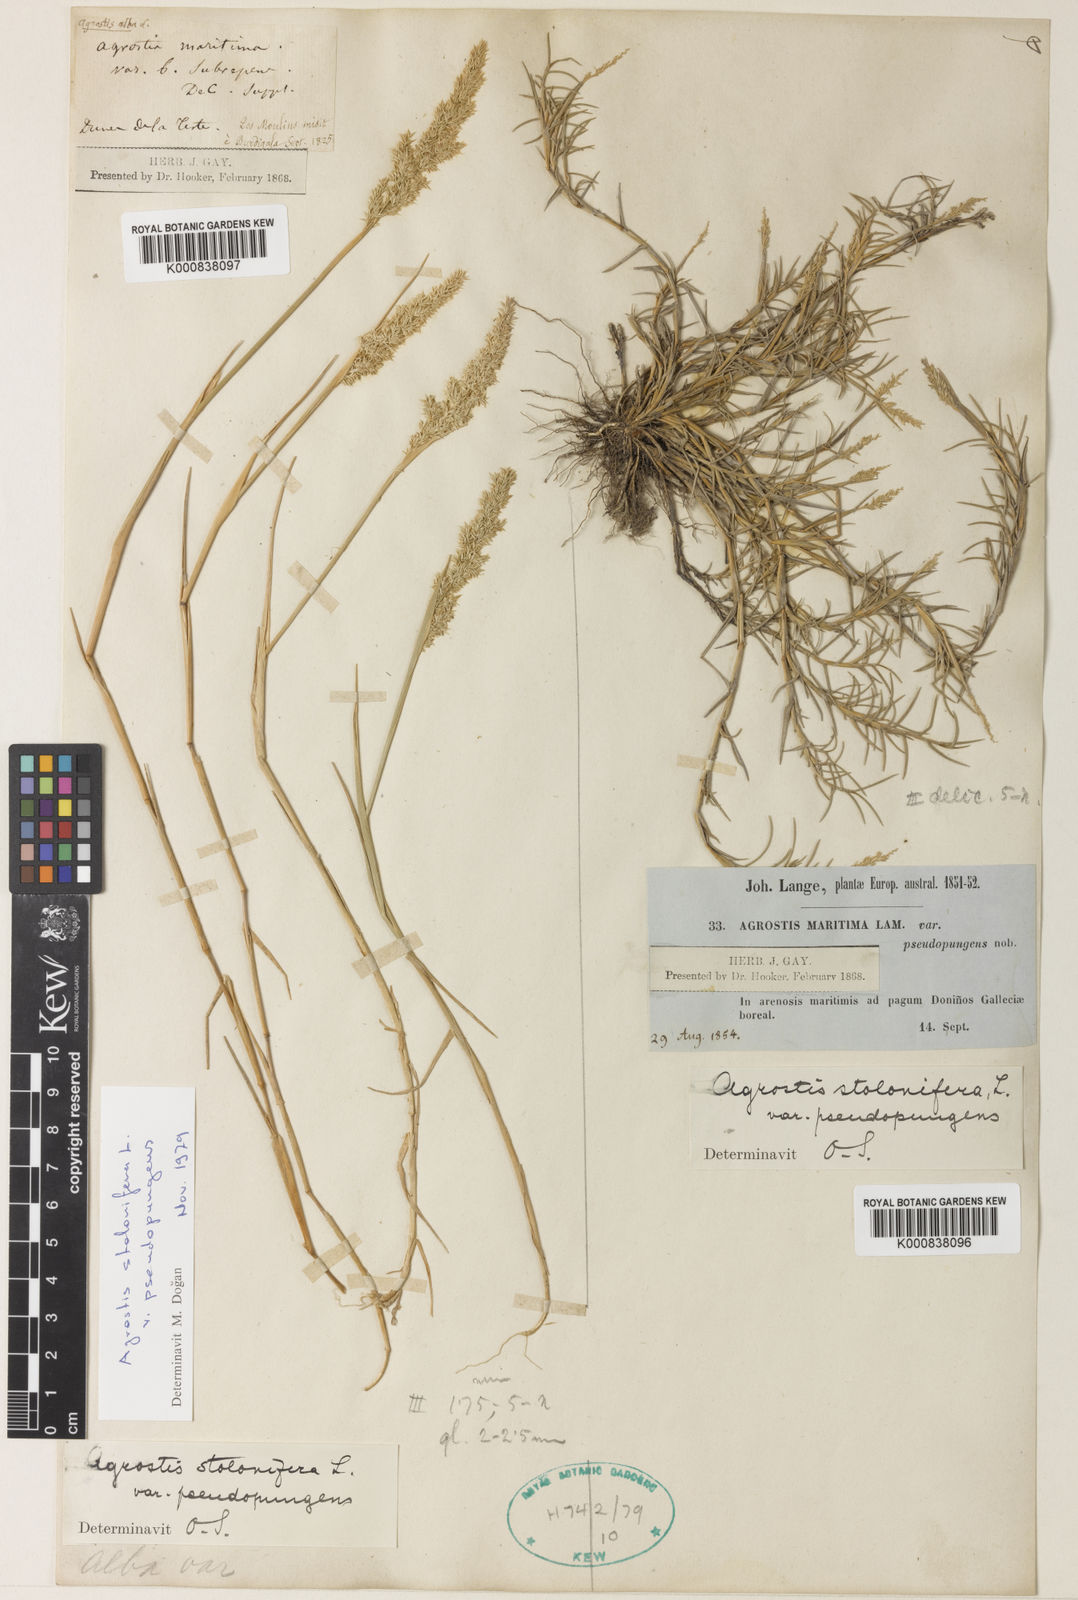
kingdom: Plantae
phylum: Tracheophyta
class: Liliopsida
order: Poales
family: Poaceae
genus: Agrostis
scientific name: Agrostis stolonifera
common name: Creeping bentgrass
